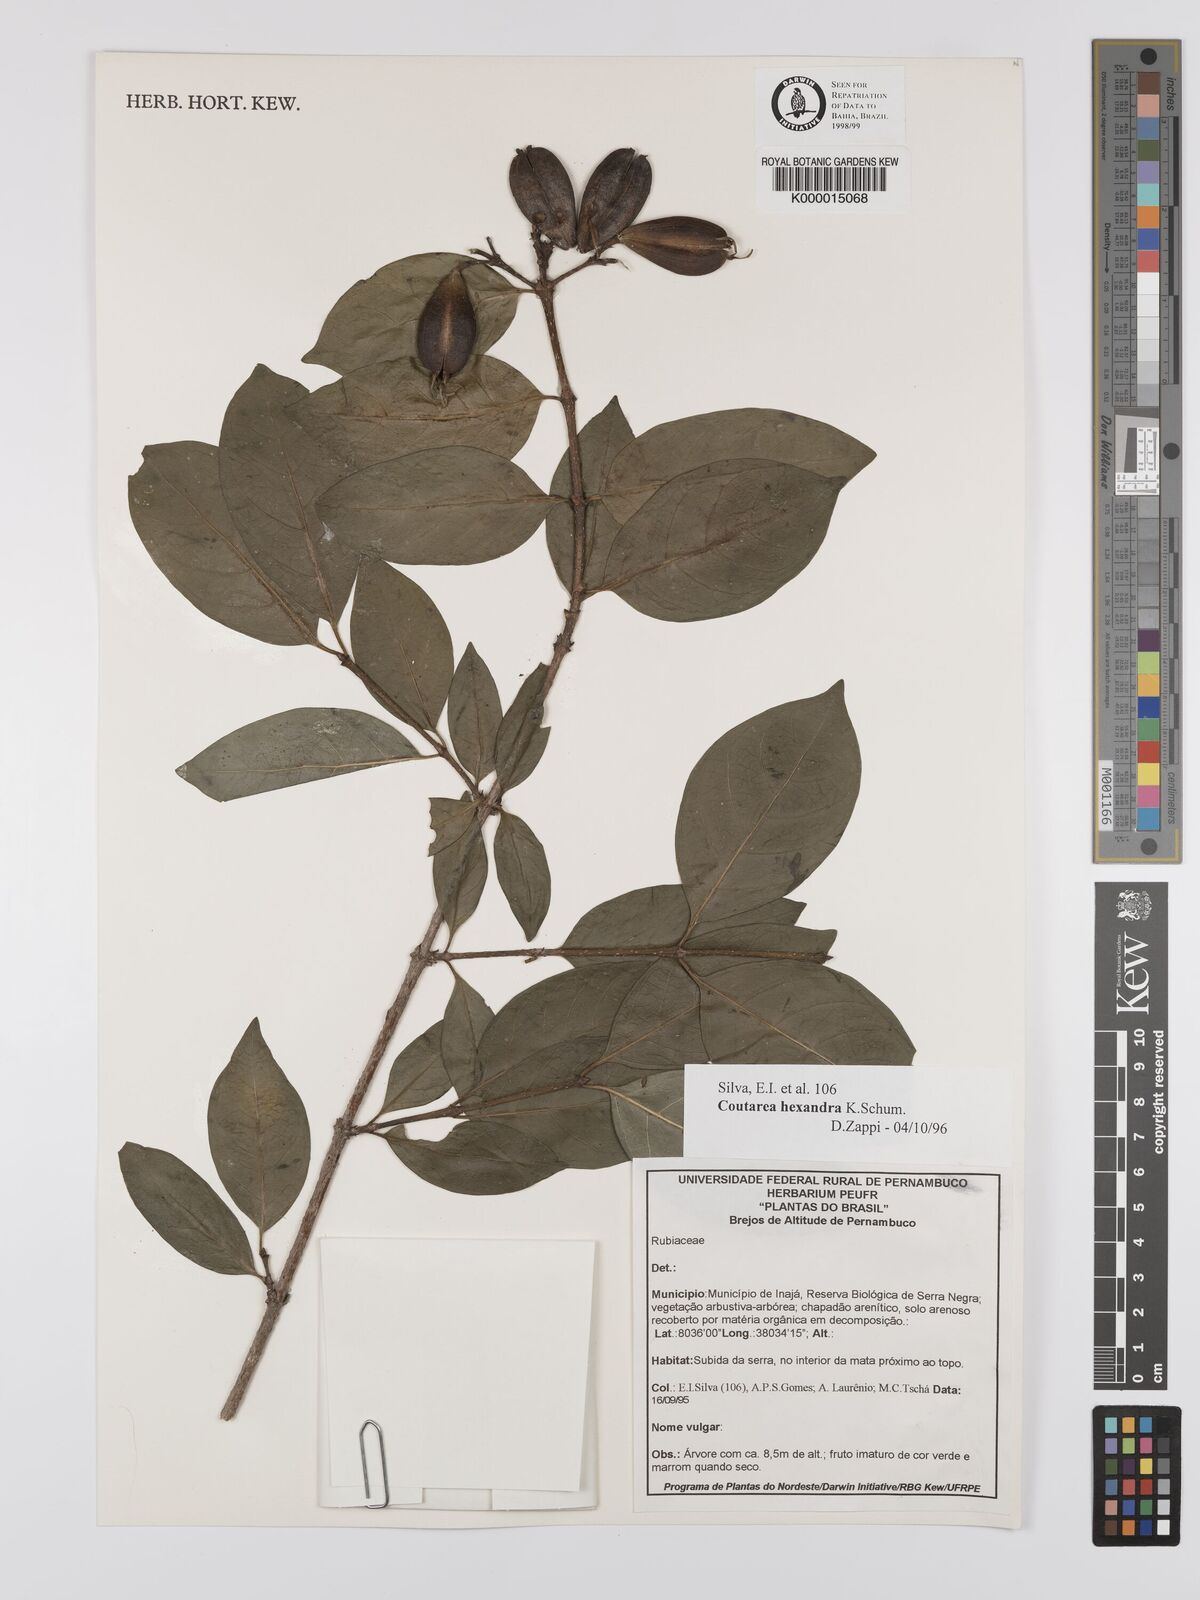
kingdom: Plantae
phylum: Tracheophyta
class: Magnoliopsida
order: Gentianales
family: Rubiaceae
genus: Coutarea
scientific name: Coutarea hexandra
